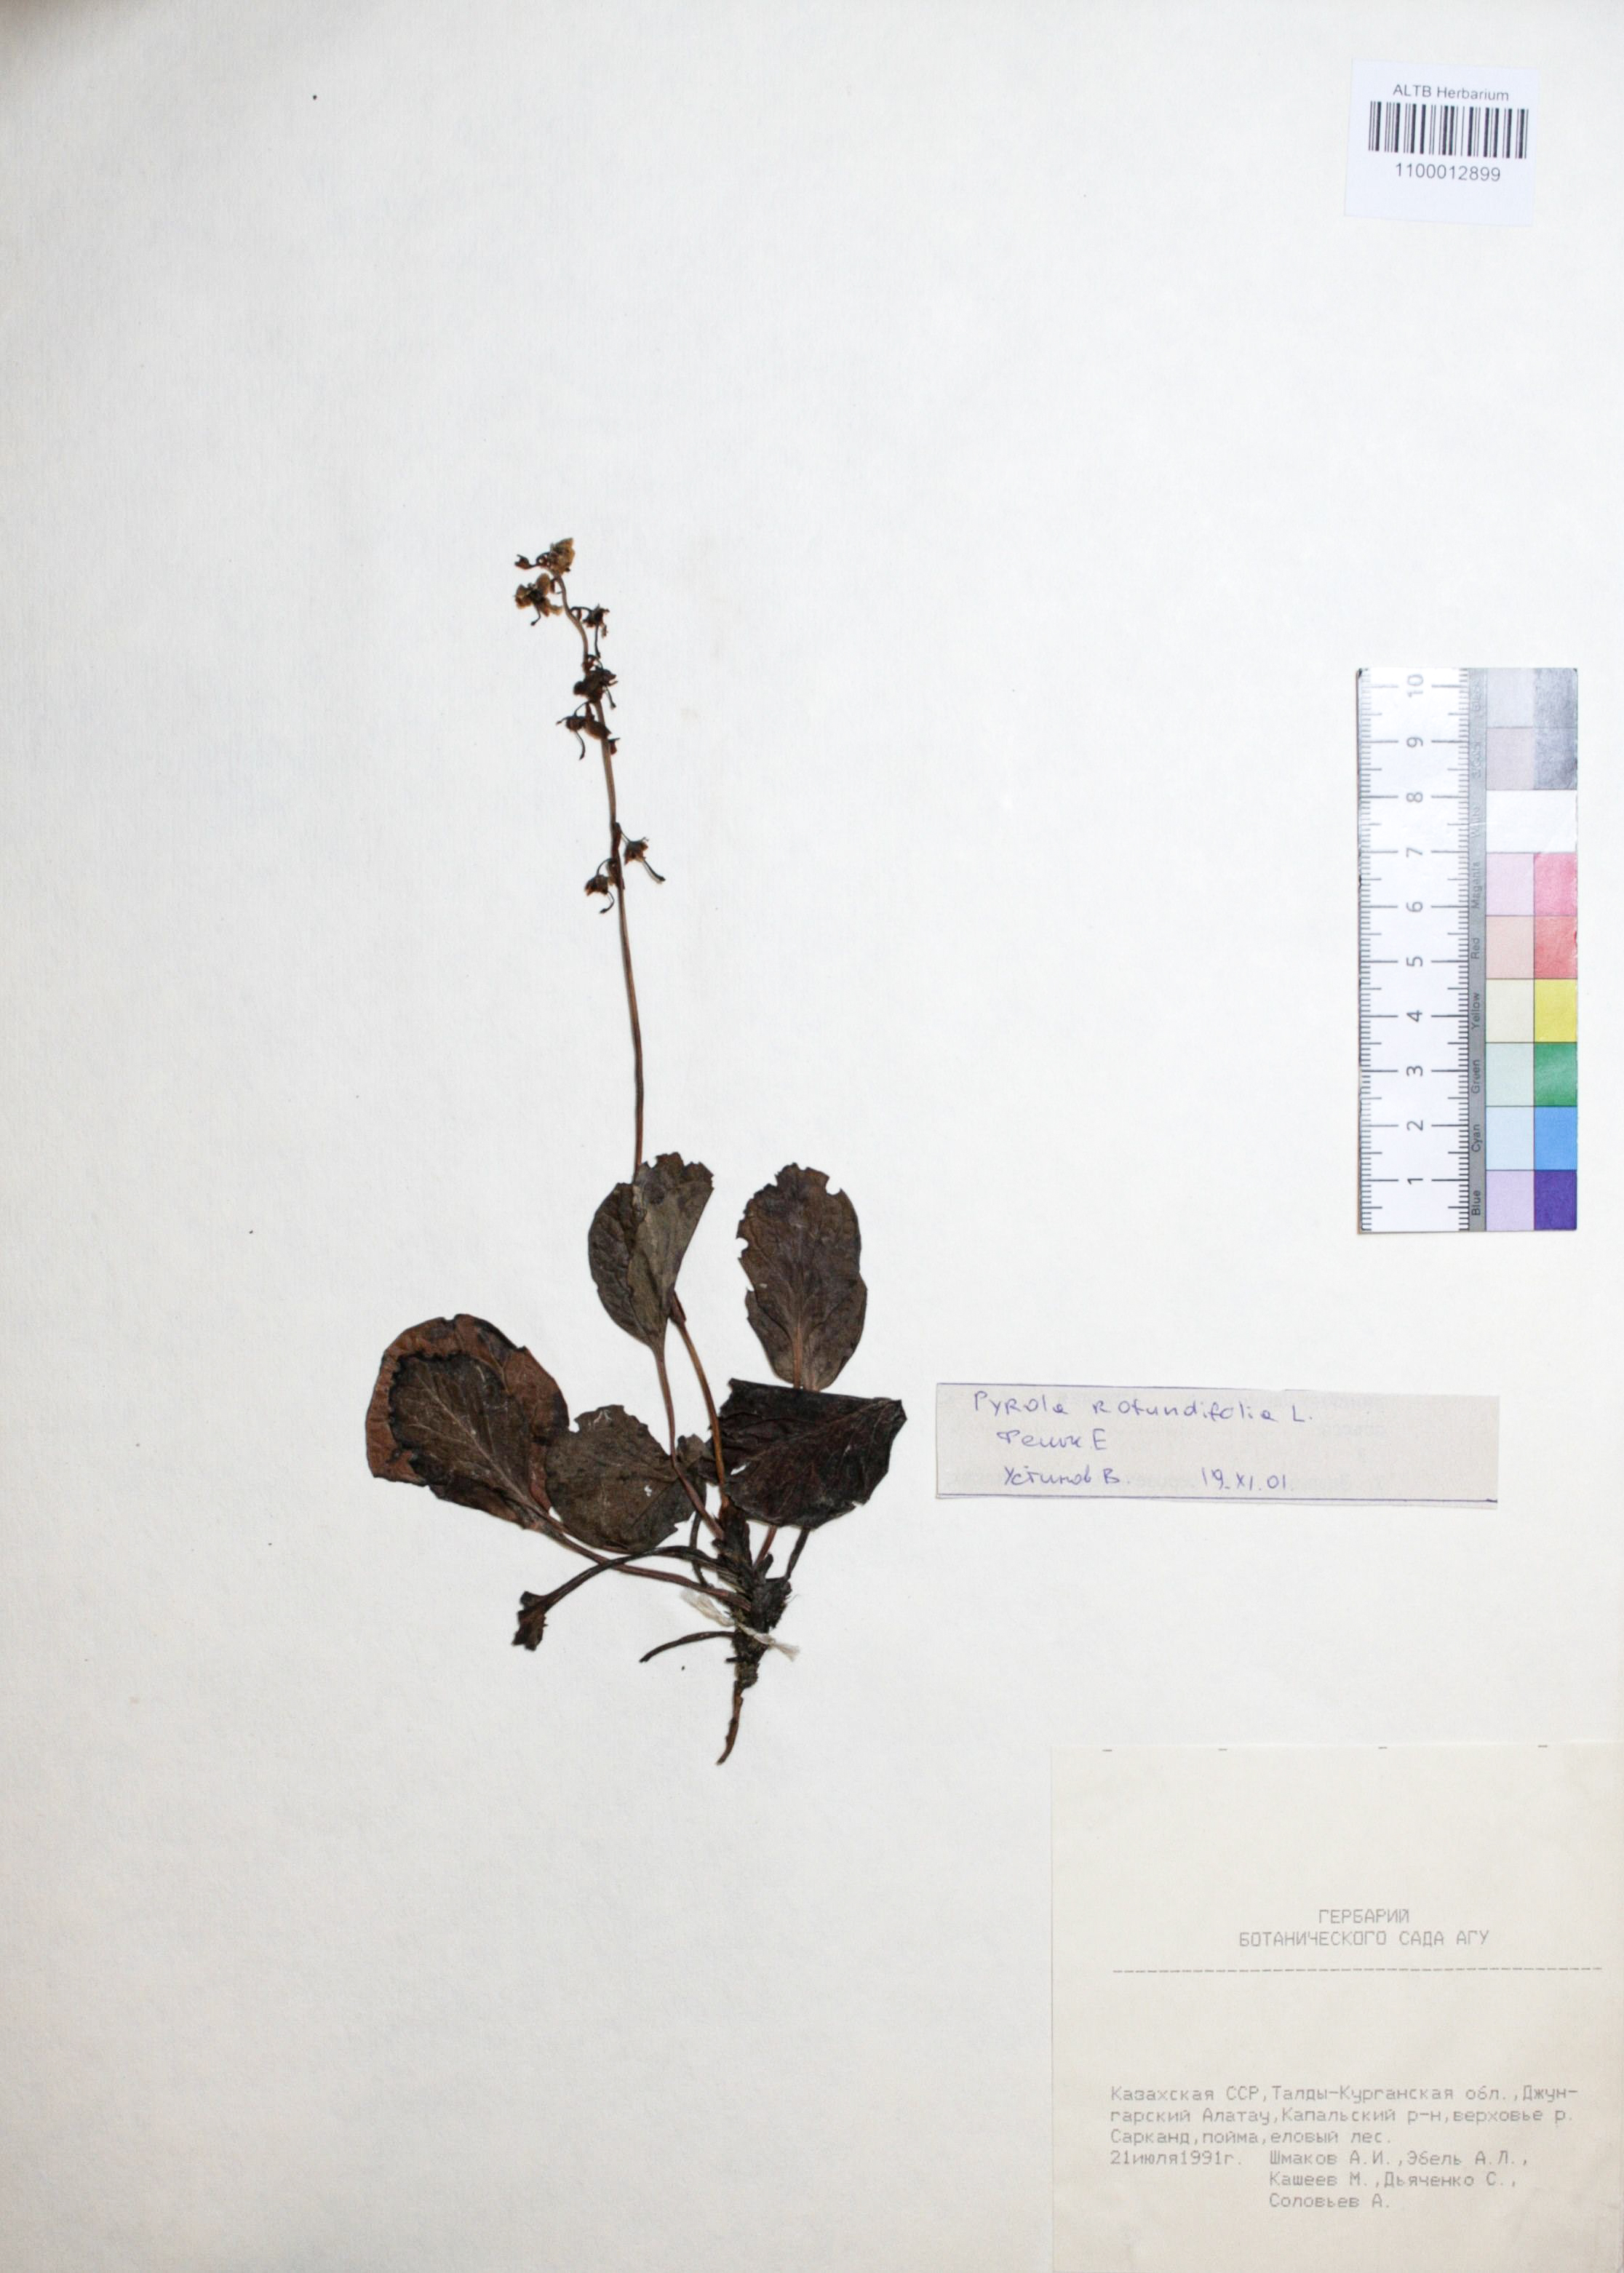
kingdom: Plantae
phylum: Tracheophyta
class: Magnoliopsida
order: Ericales
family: Ericaceae
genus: Pyrola
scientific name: Pyrola rotundifolia
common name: Round-leaved wintergreen
